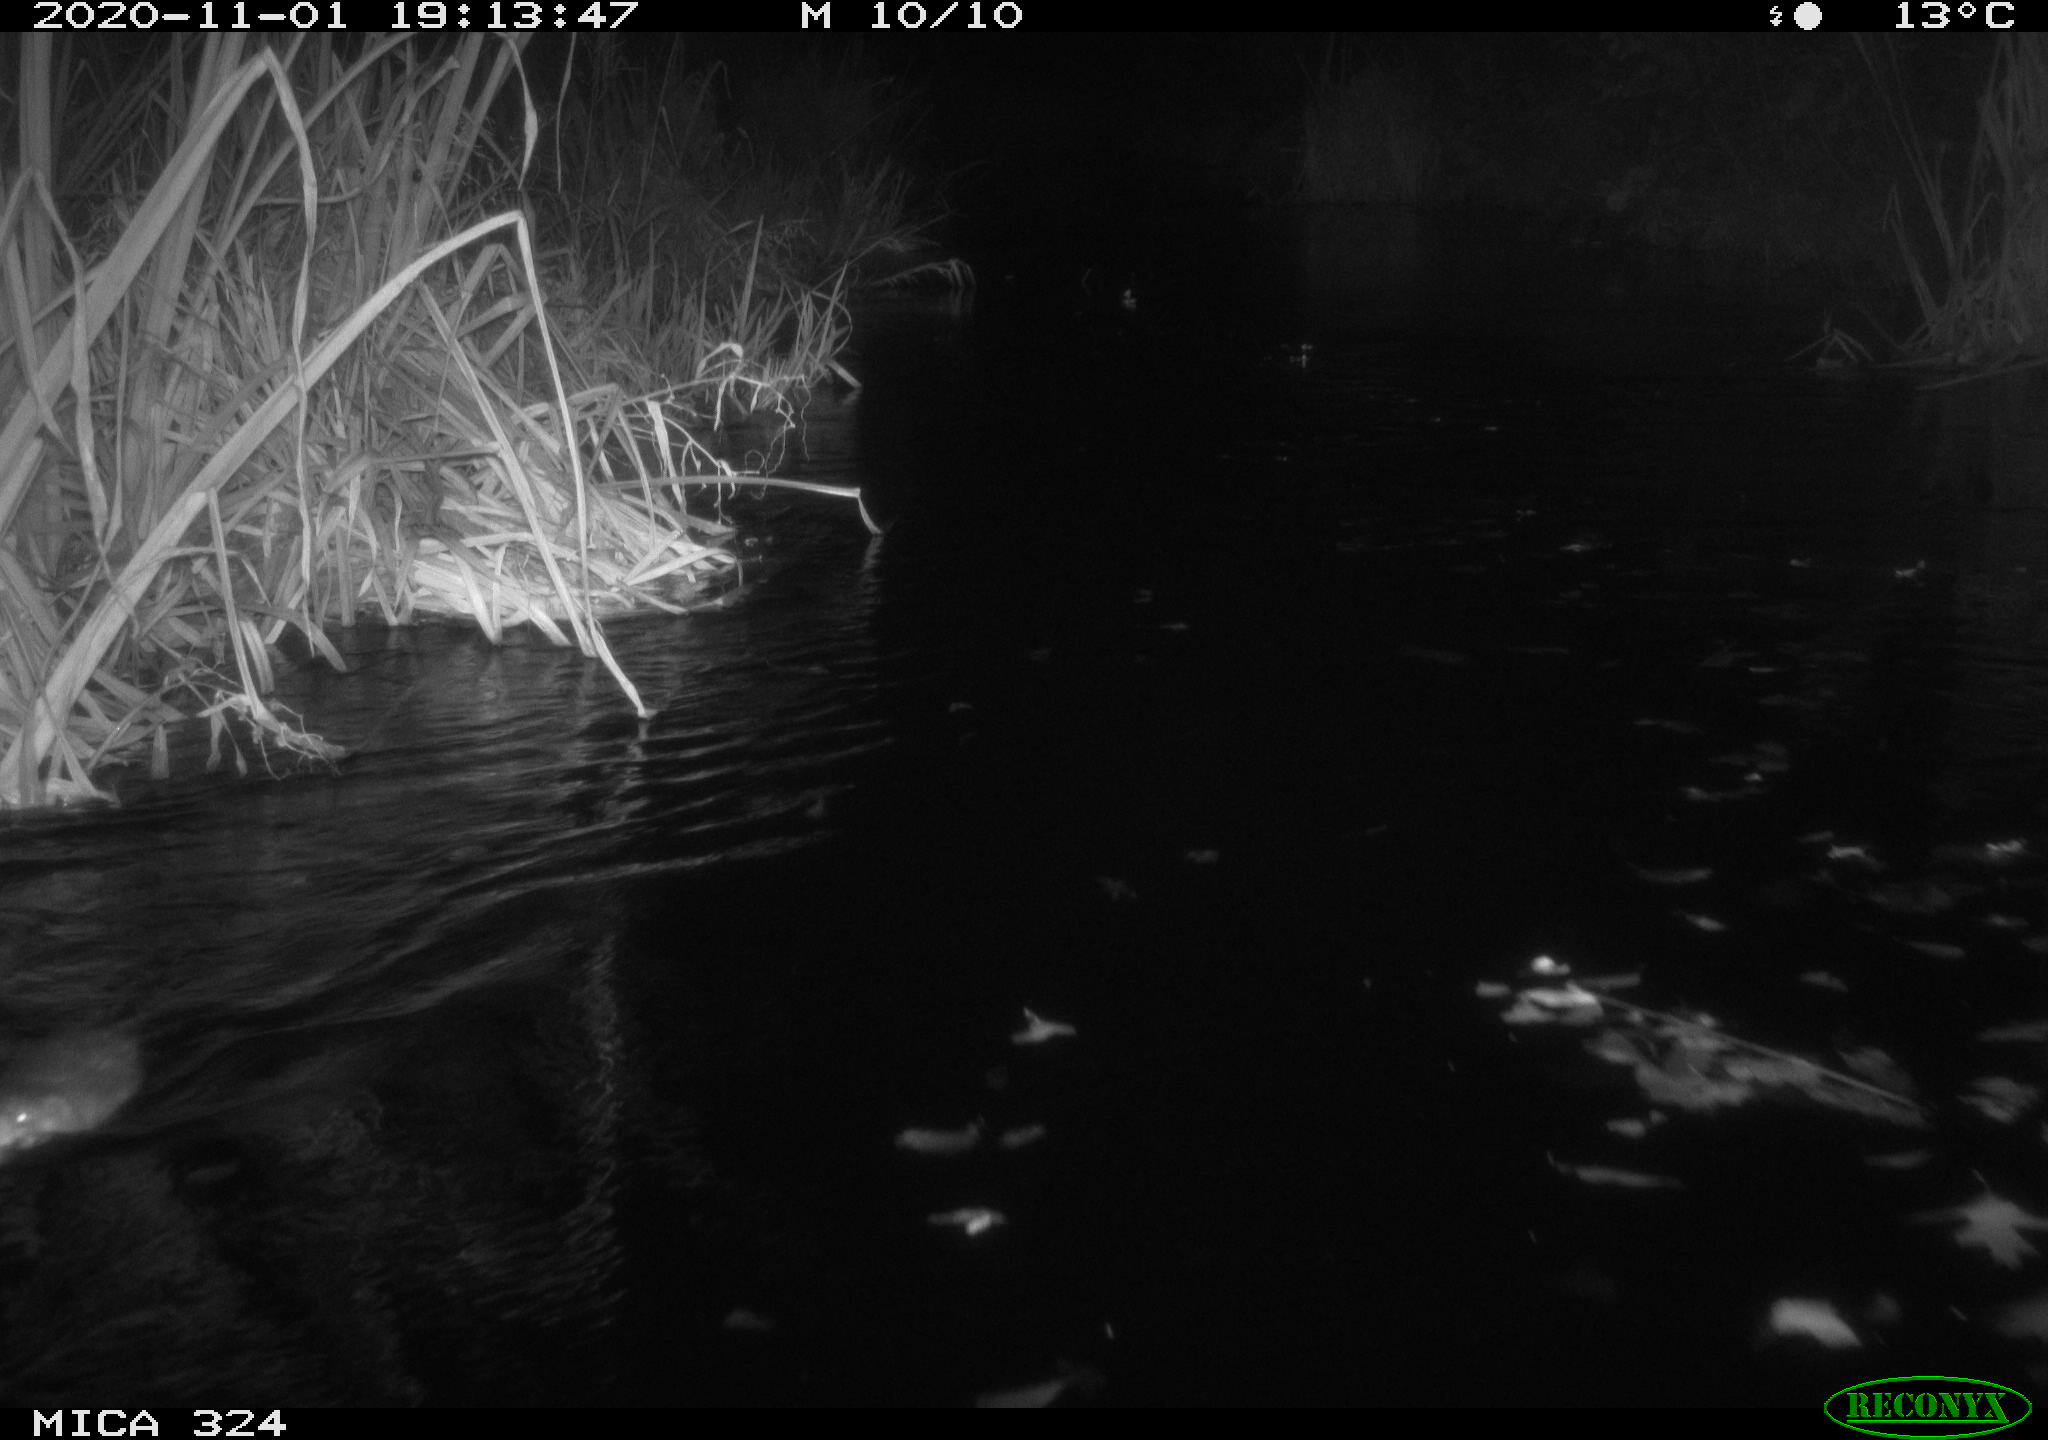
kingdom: Animalia
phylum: Chordata
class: Mammalia
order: Rodentia
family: Cricetidae
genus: Ondatra
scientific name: Ondatra zibethicus
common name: Muskrat
